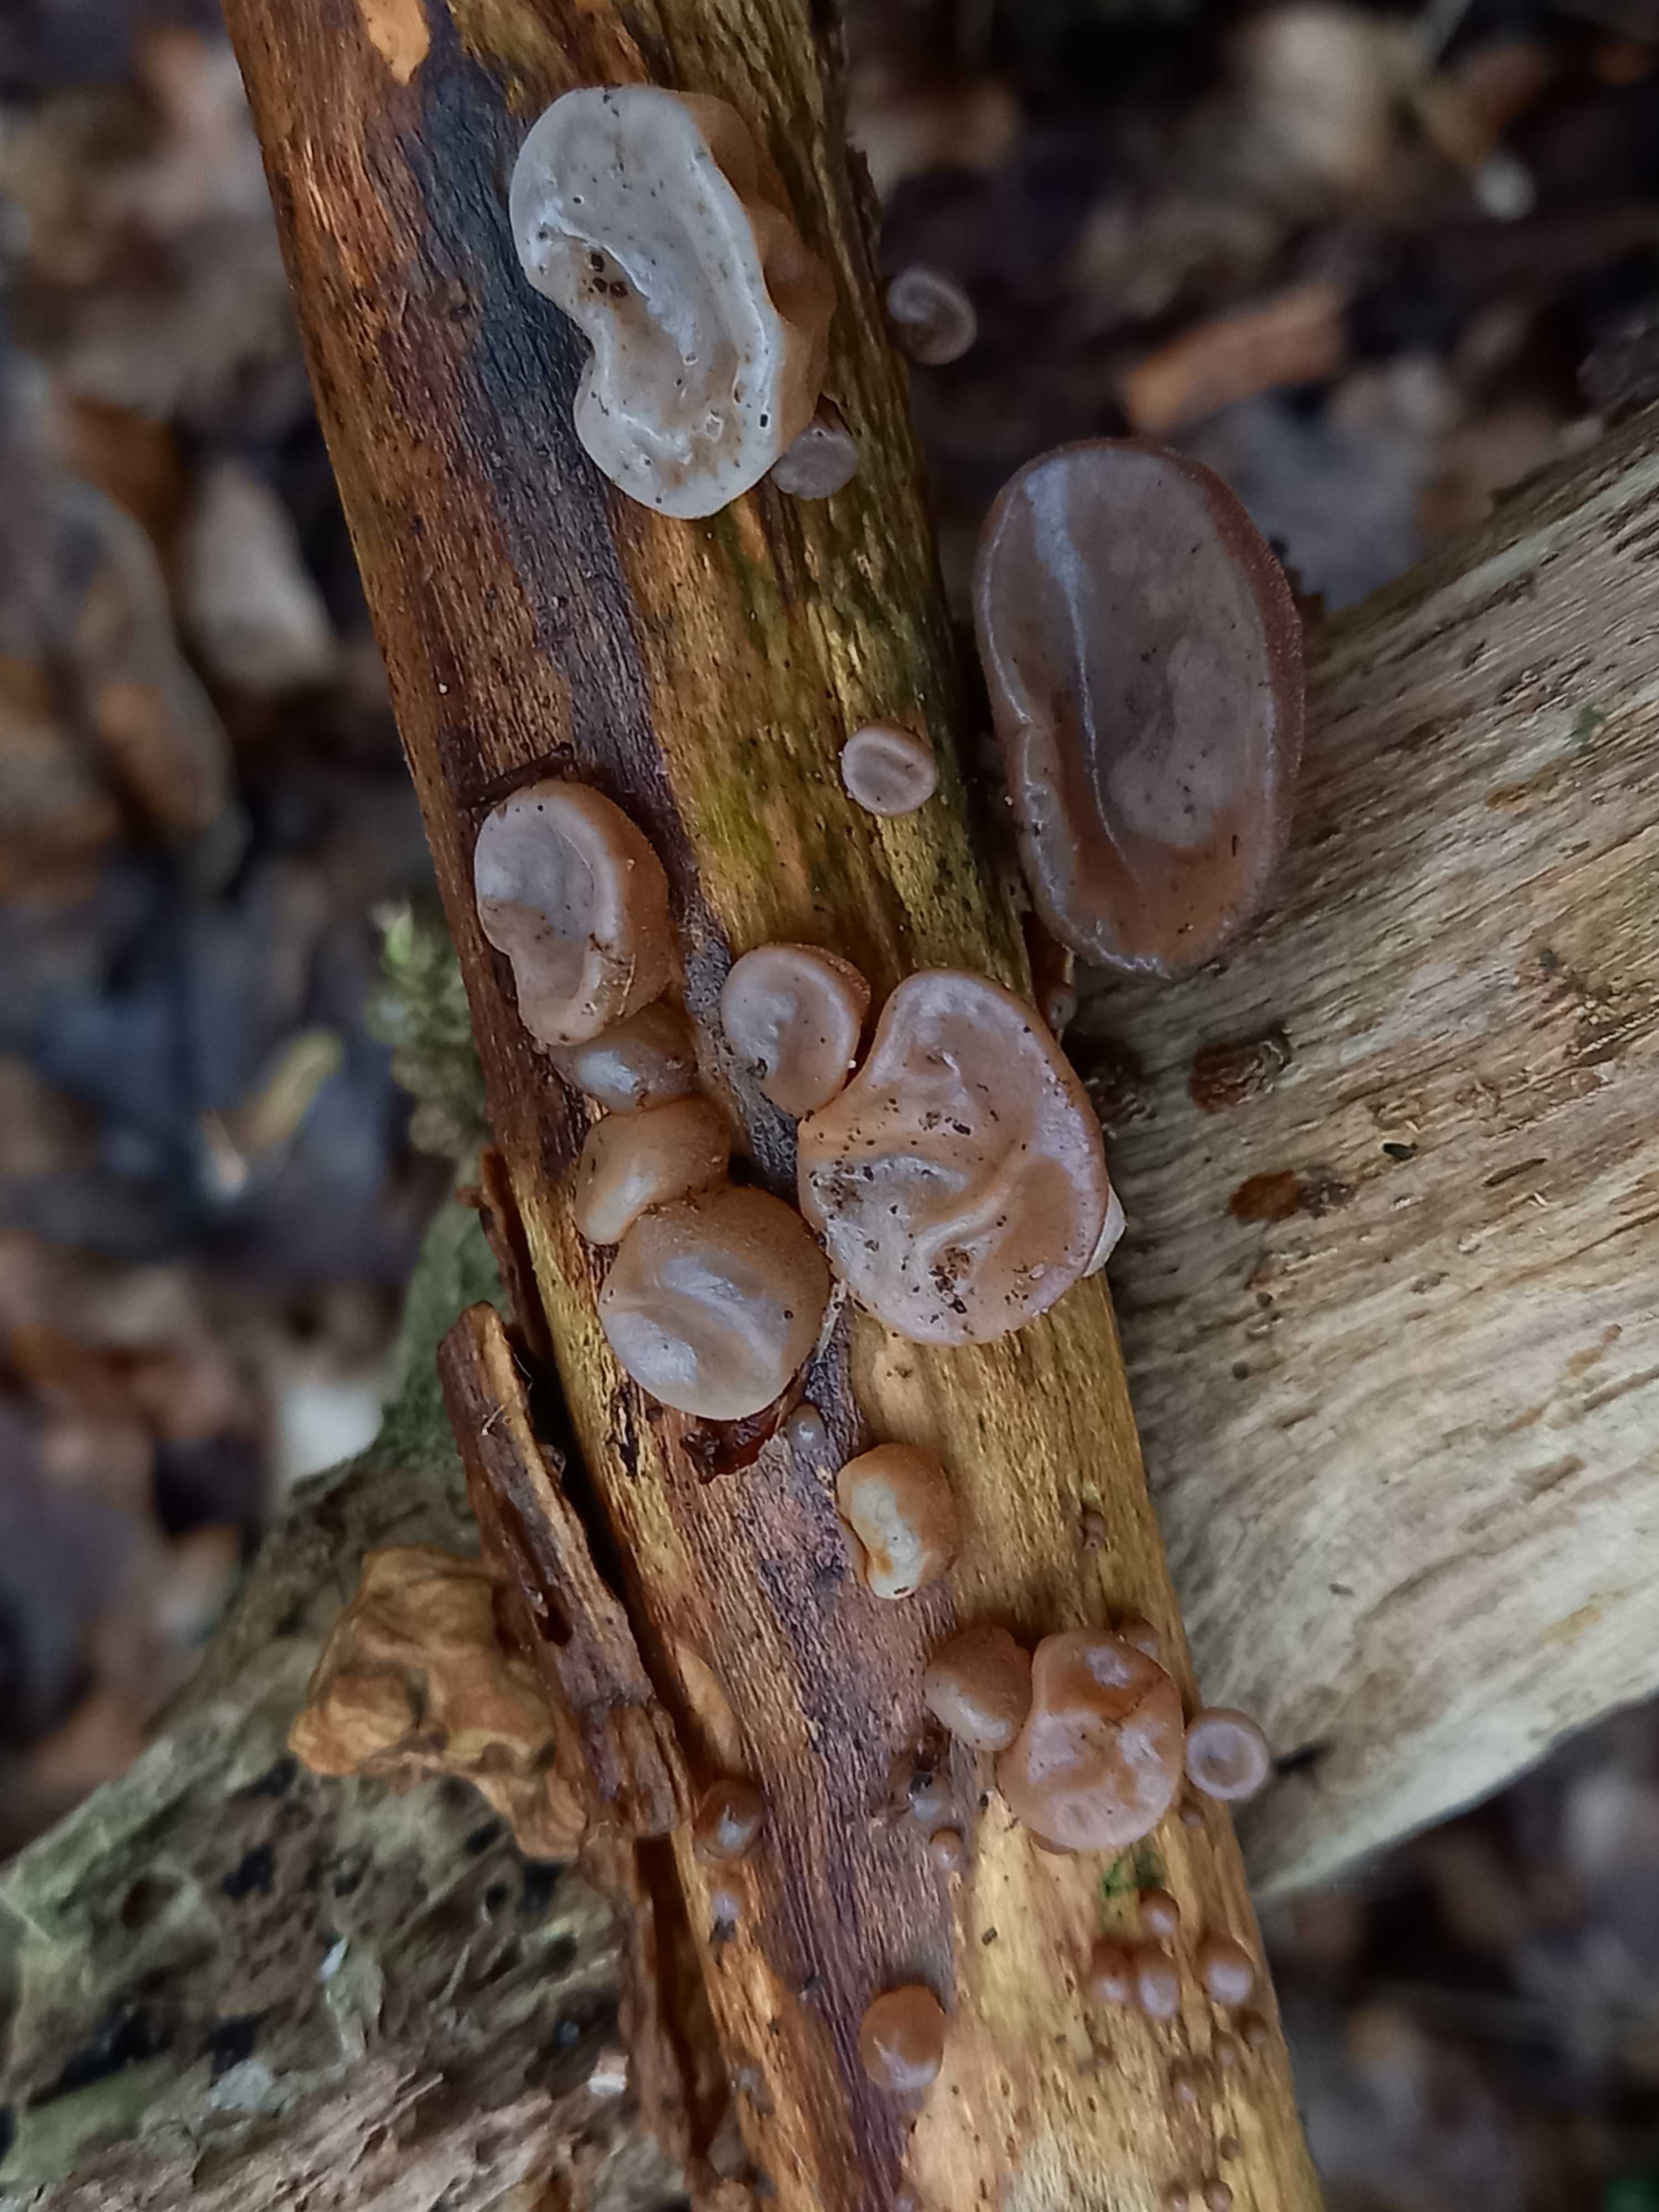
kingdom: Fungi
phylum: Basidiomycota
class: Agaricomycetes
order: Auriculariales
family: Auriculariaceae
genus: Auricularia
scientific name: Auricularia auricula-judae
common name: almindelig judasøre
